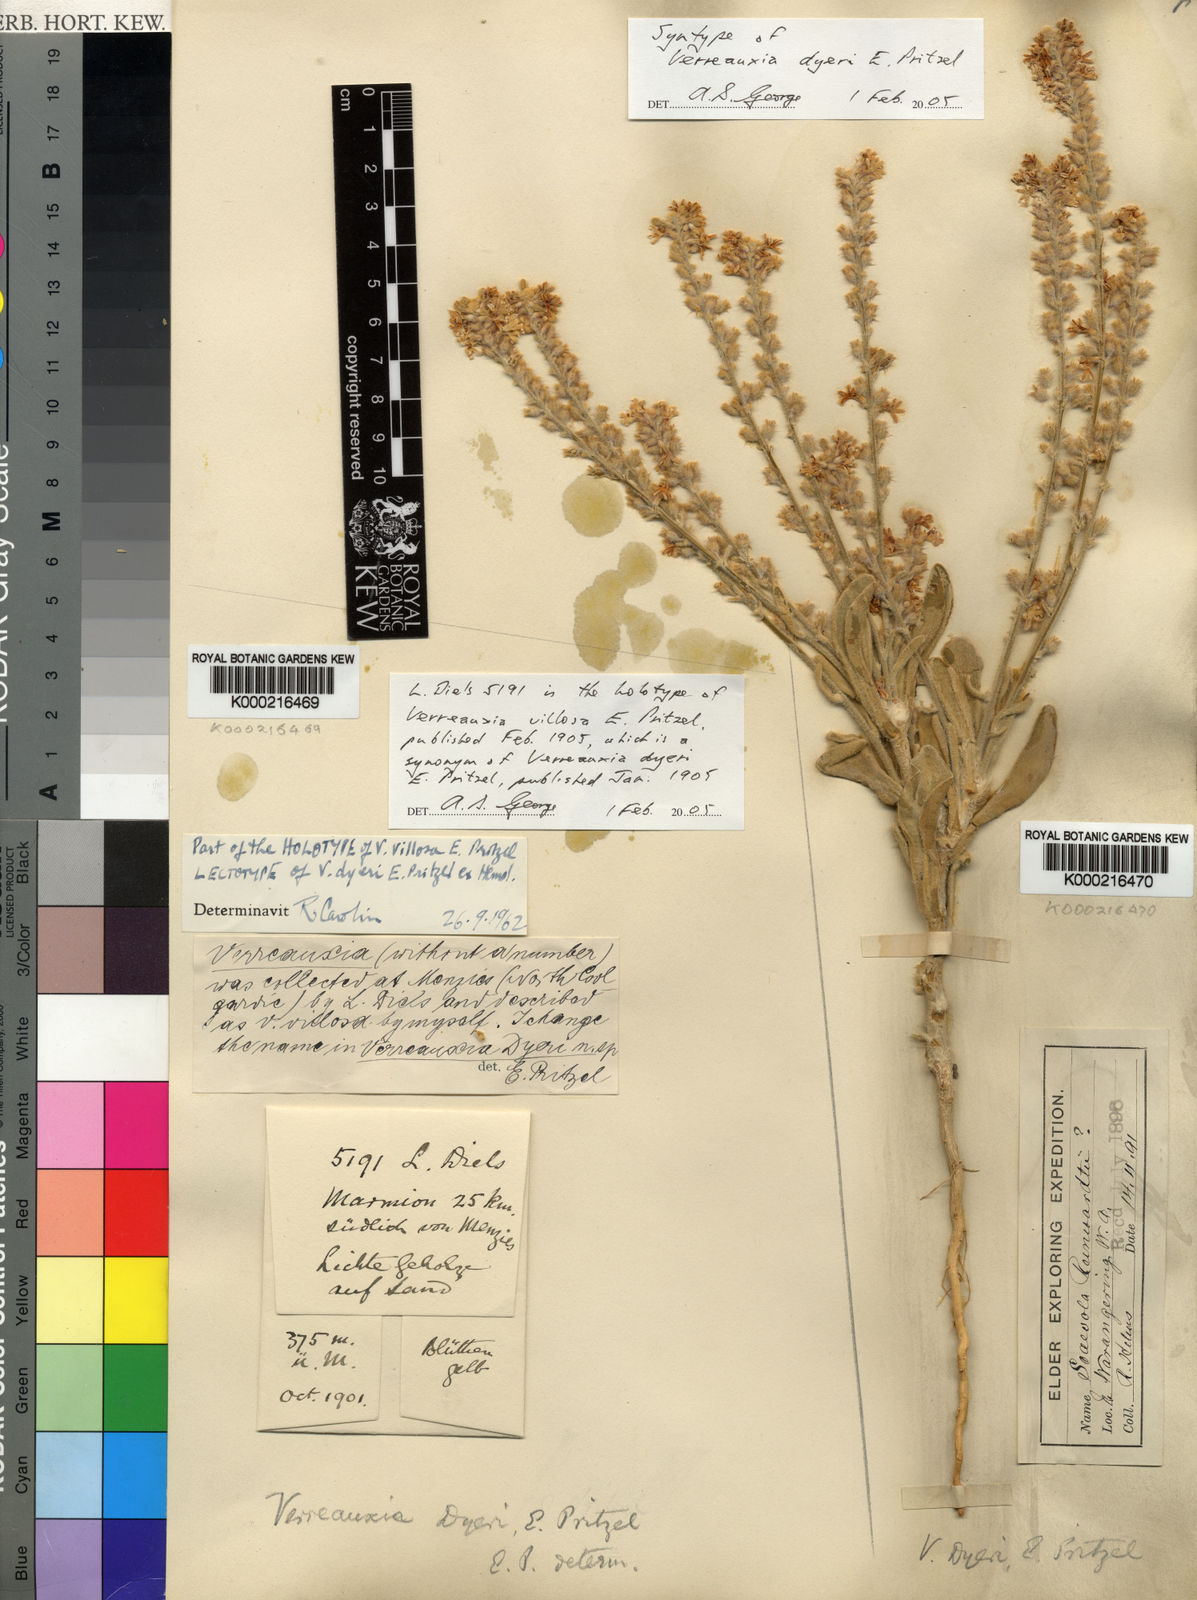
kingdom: Plantae
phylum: Tracheophyta
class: Magnoliopsida
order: Asterales
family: Goodeniaceae
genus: Goodenia
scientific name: Goodenia etheira
